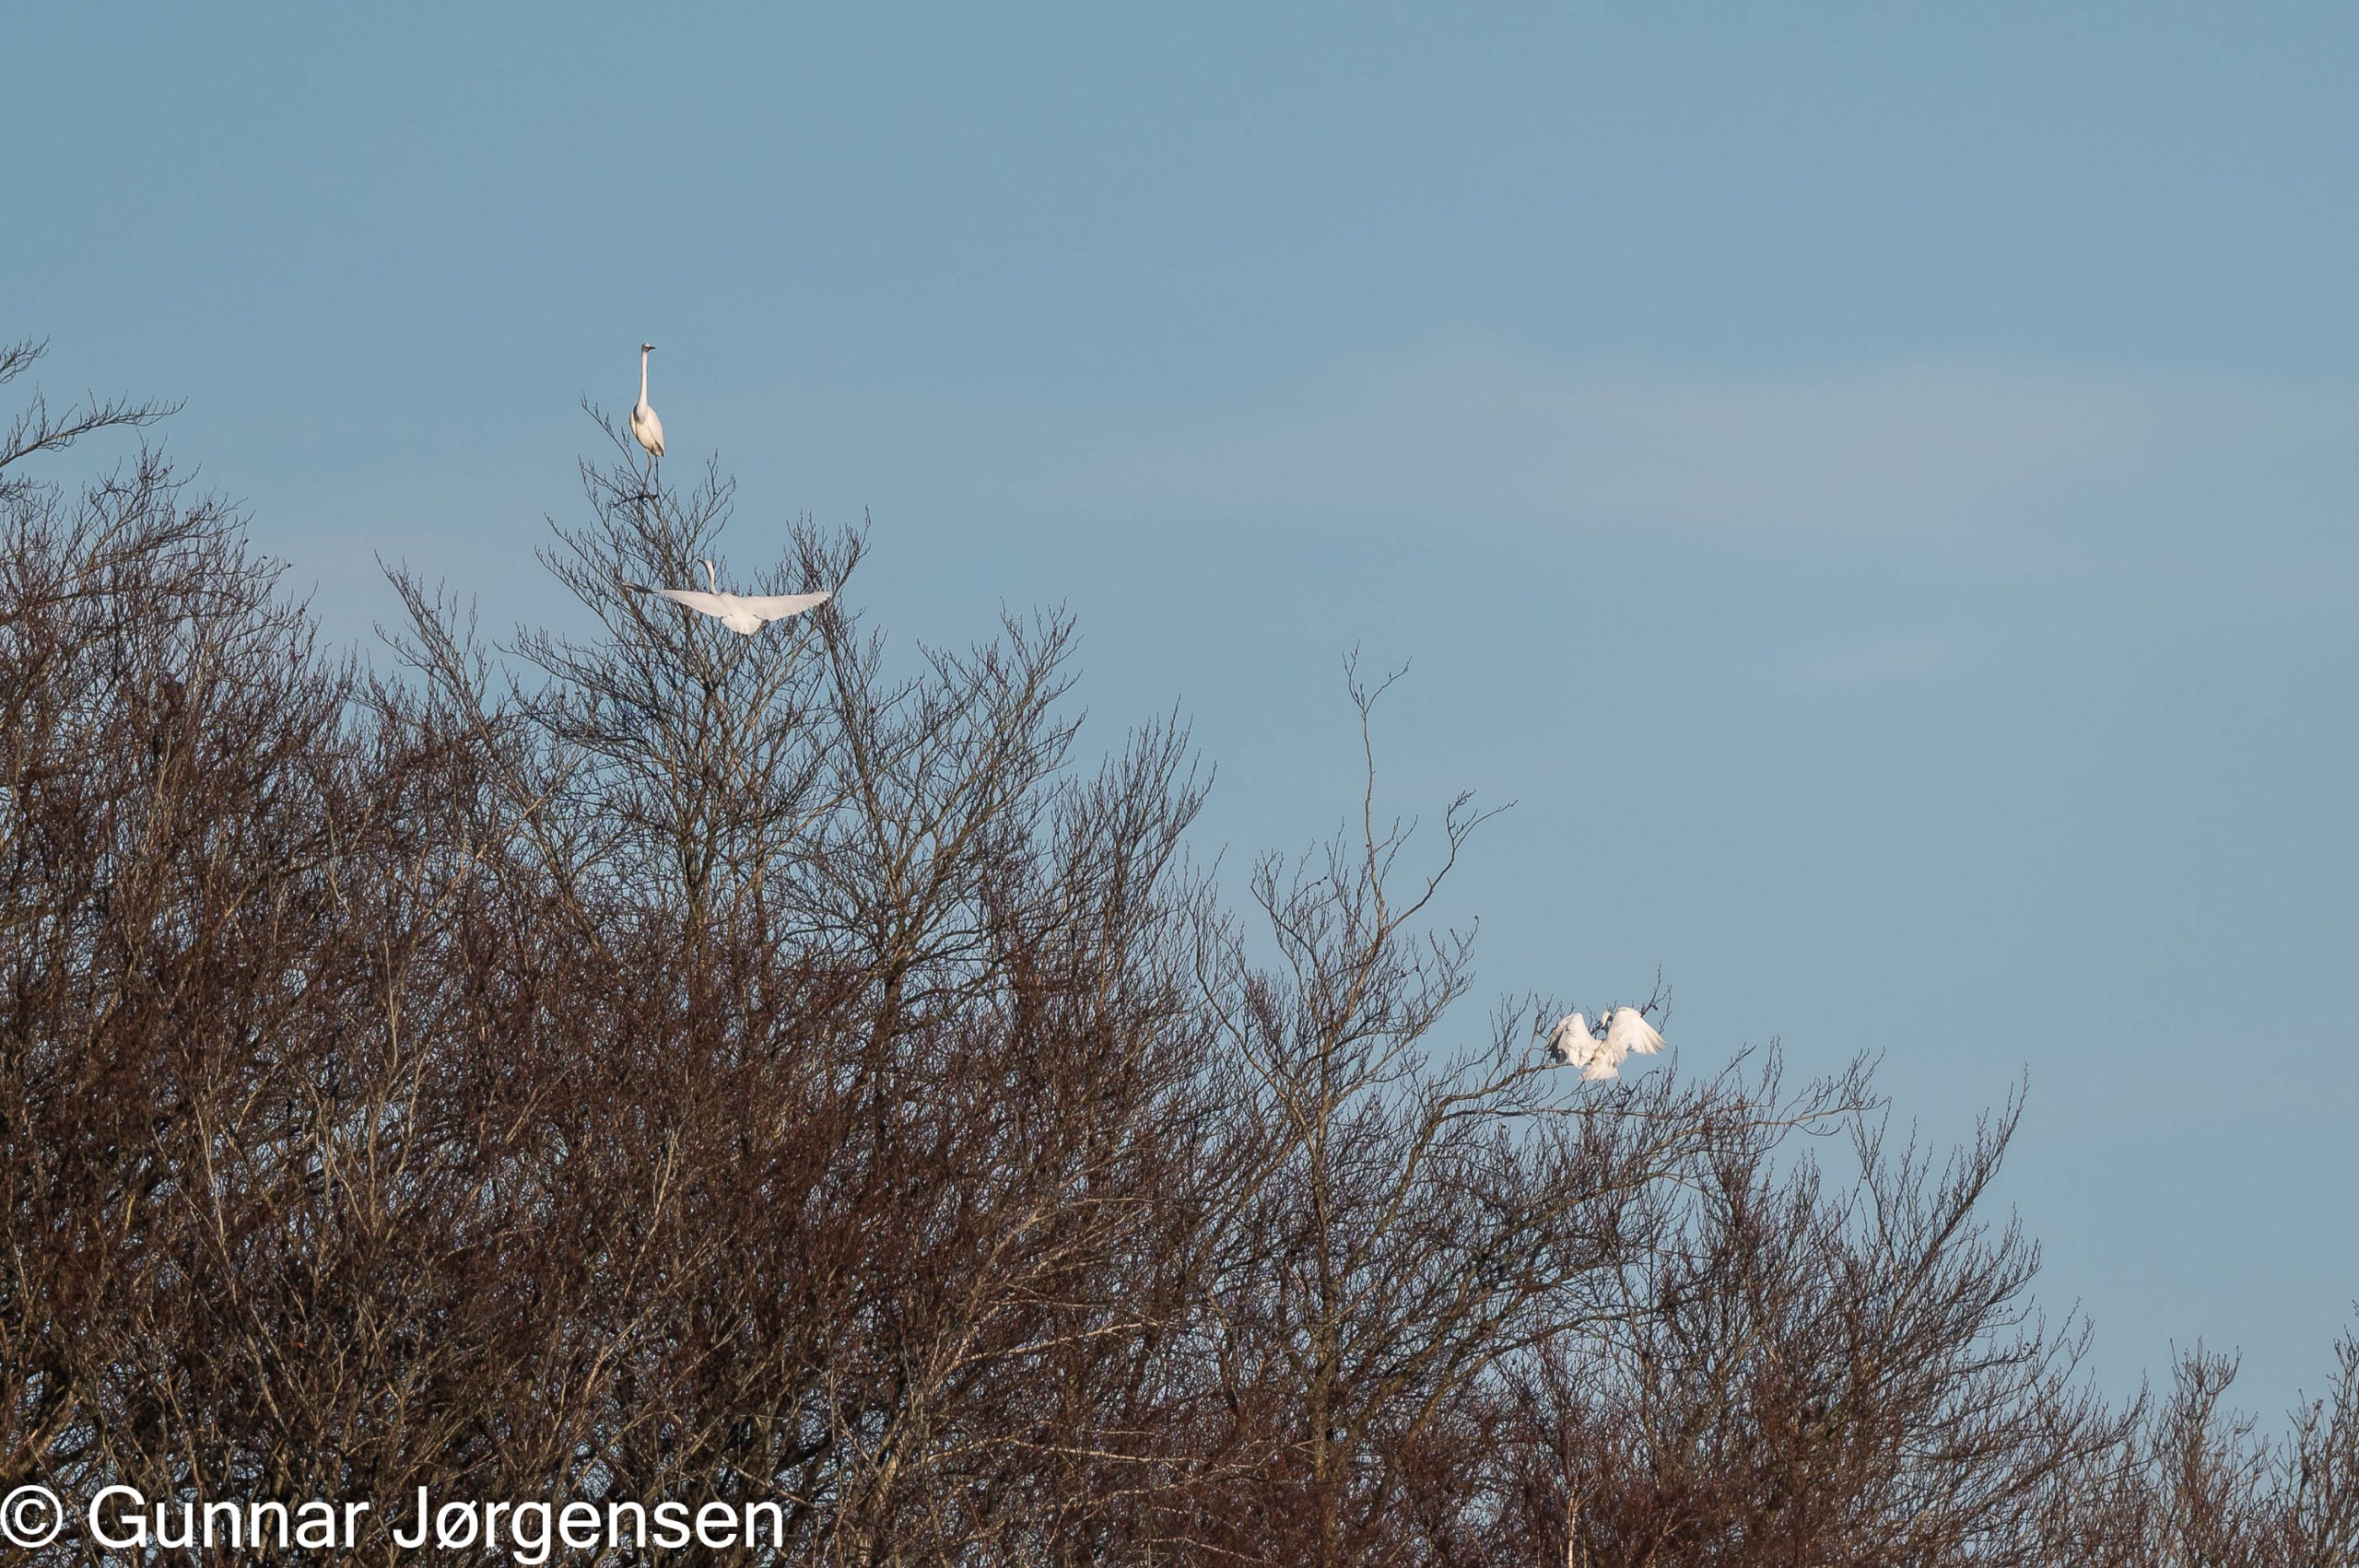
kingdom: Animalia
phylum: Chordata
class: Aves
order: Pelecaniformes
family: Ardeidae
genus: Ardea
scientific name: Ardea alba
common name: Sølvhejre
